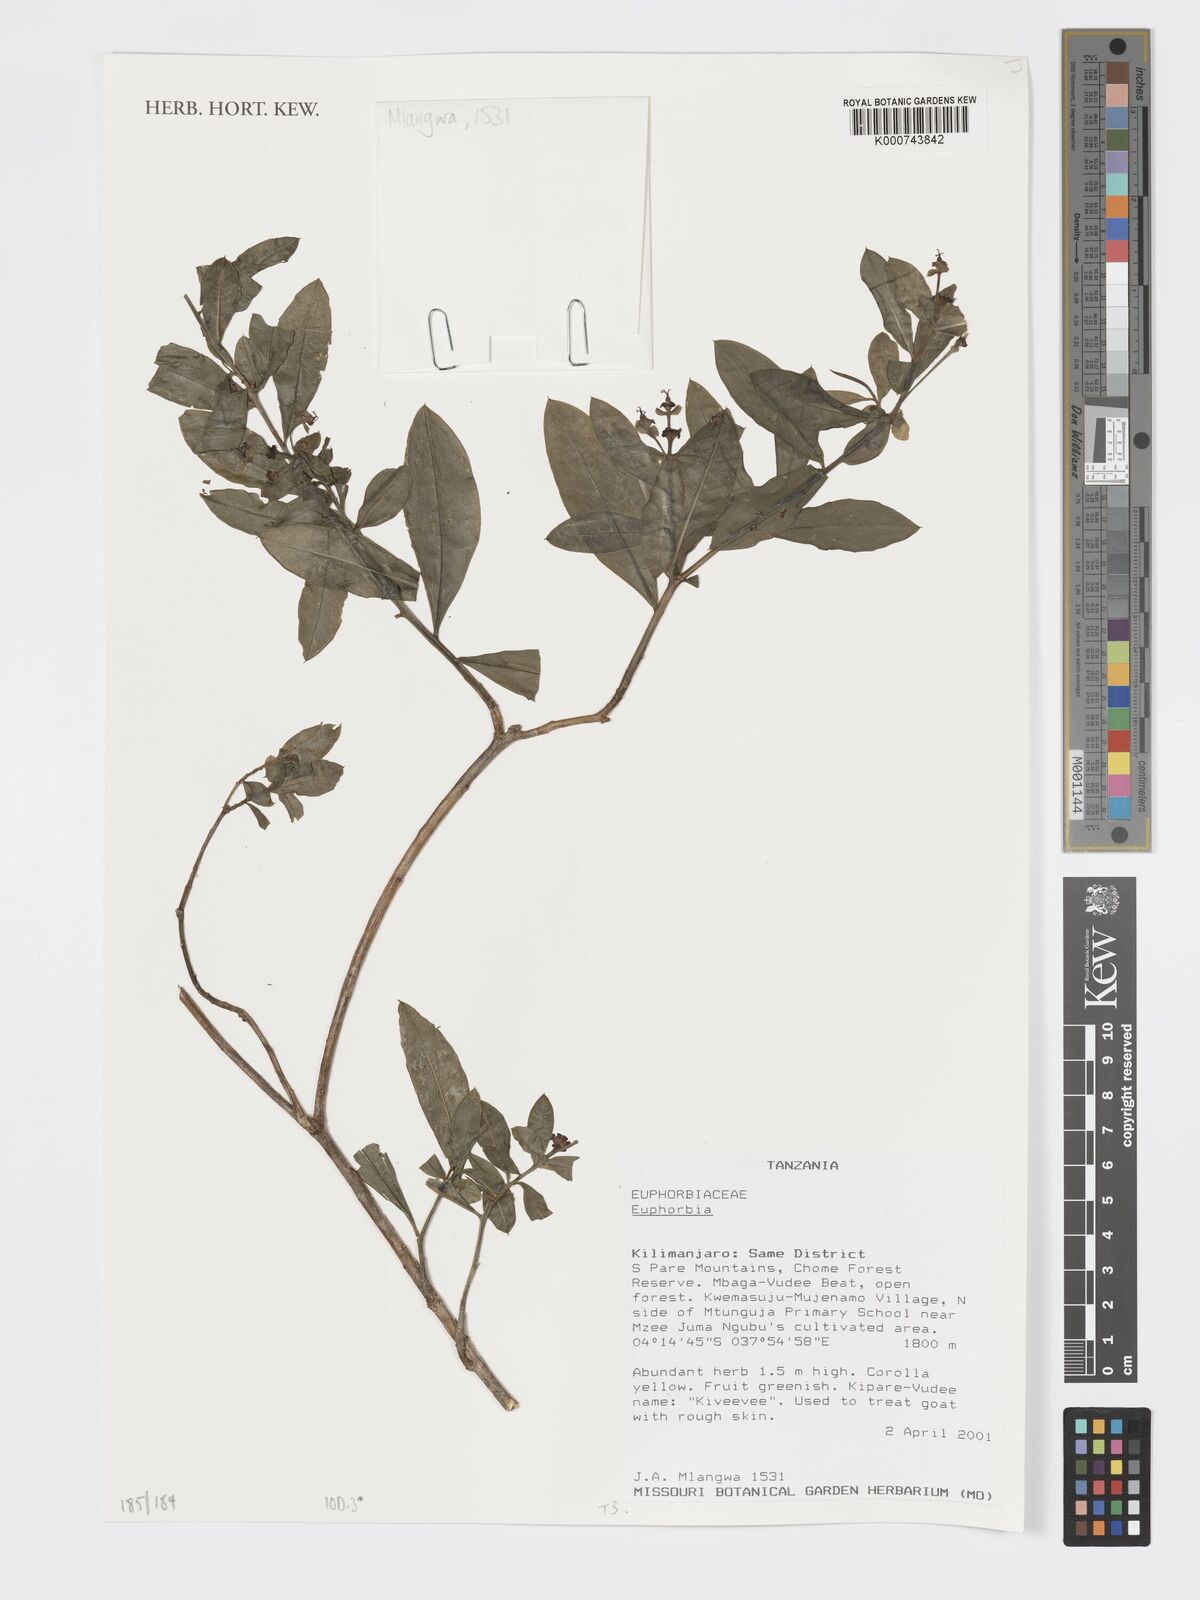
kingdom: Plantae
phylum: Tracheophyta
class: Magnoliopsida
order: Malpighiales
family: Euphorbiaceae
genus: Euphorbia
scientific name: Euphorbia
